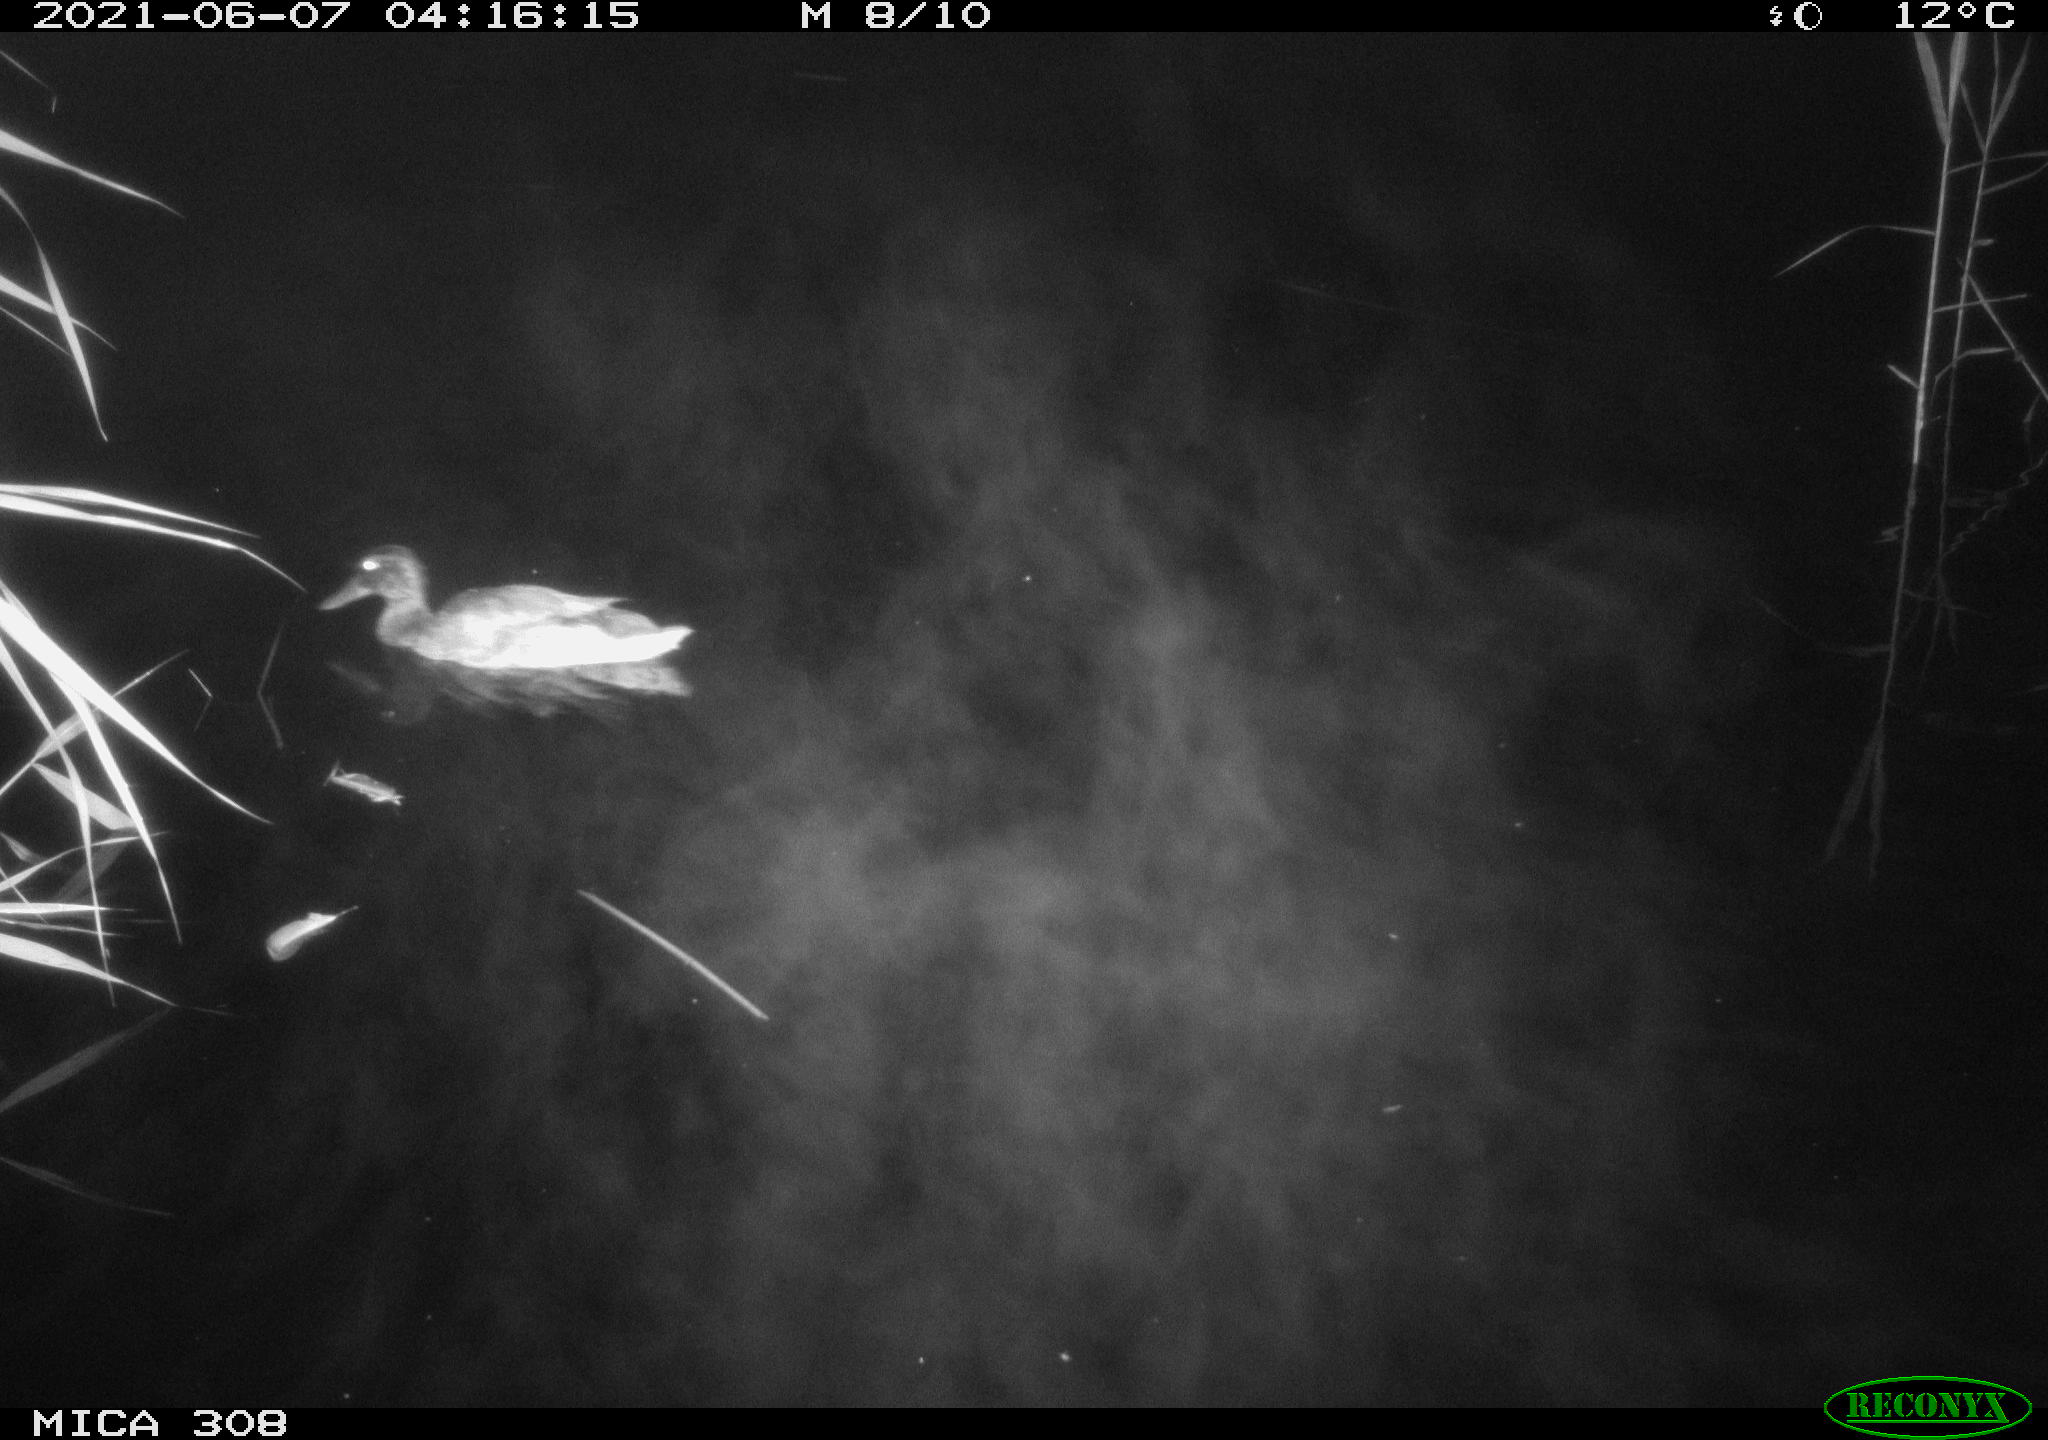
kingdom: Animalia
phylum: Chordata
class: Aves
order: Anseriformes
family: Anatidae
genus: Anas
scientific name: Anas platyrhynchos
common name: Mallard
